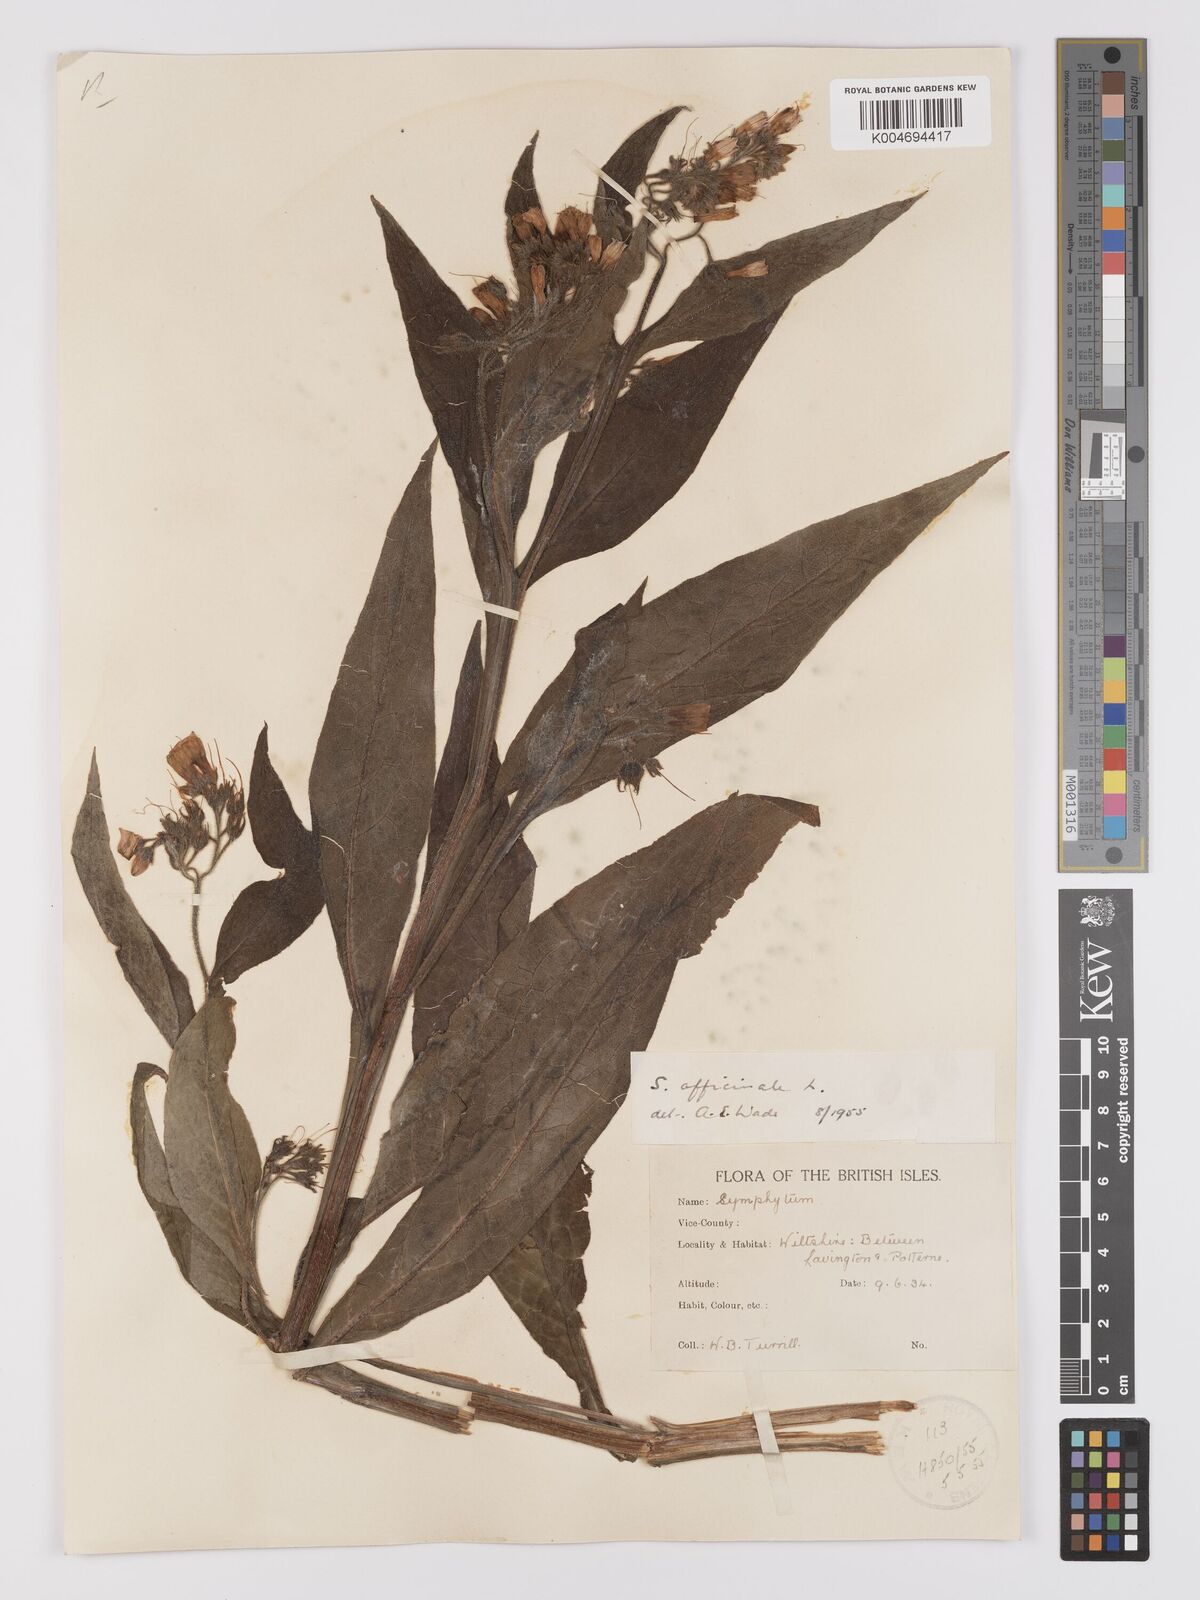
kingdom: Plantae
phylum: Tracheophyta
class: Magnoliopsida
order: Boraginales
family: Boraginaceae
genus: Symphytum
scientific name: Symphytum officinale
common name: Common comfrey
